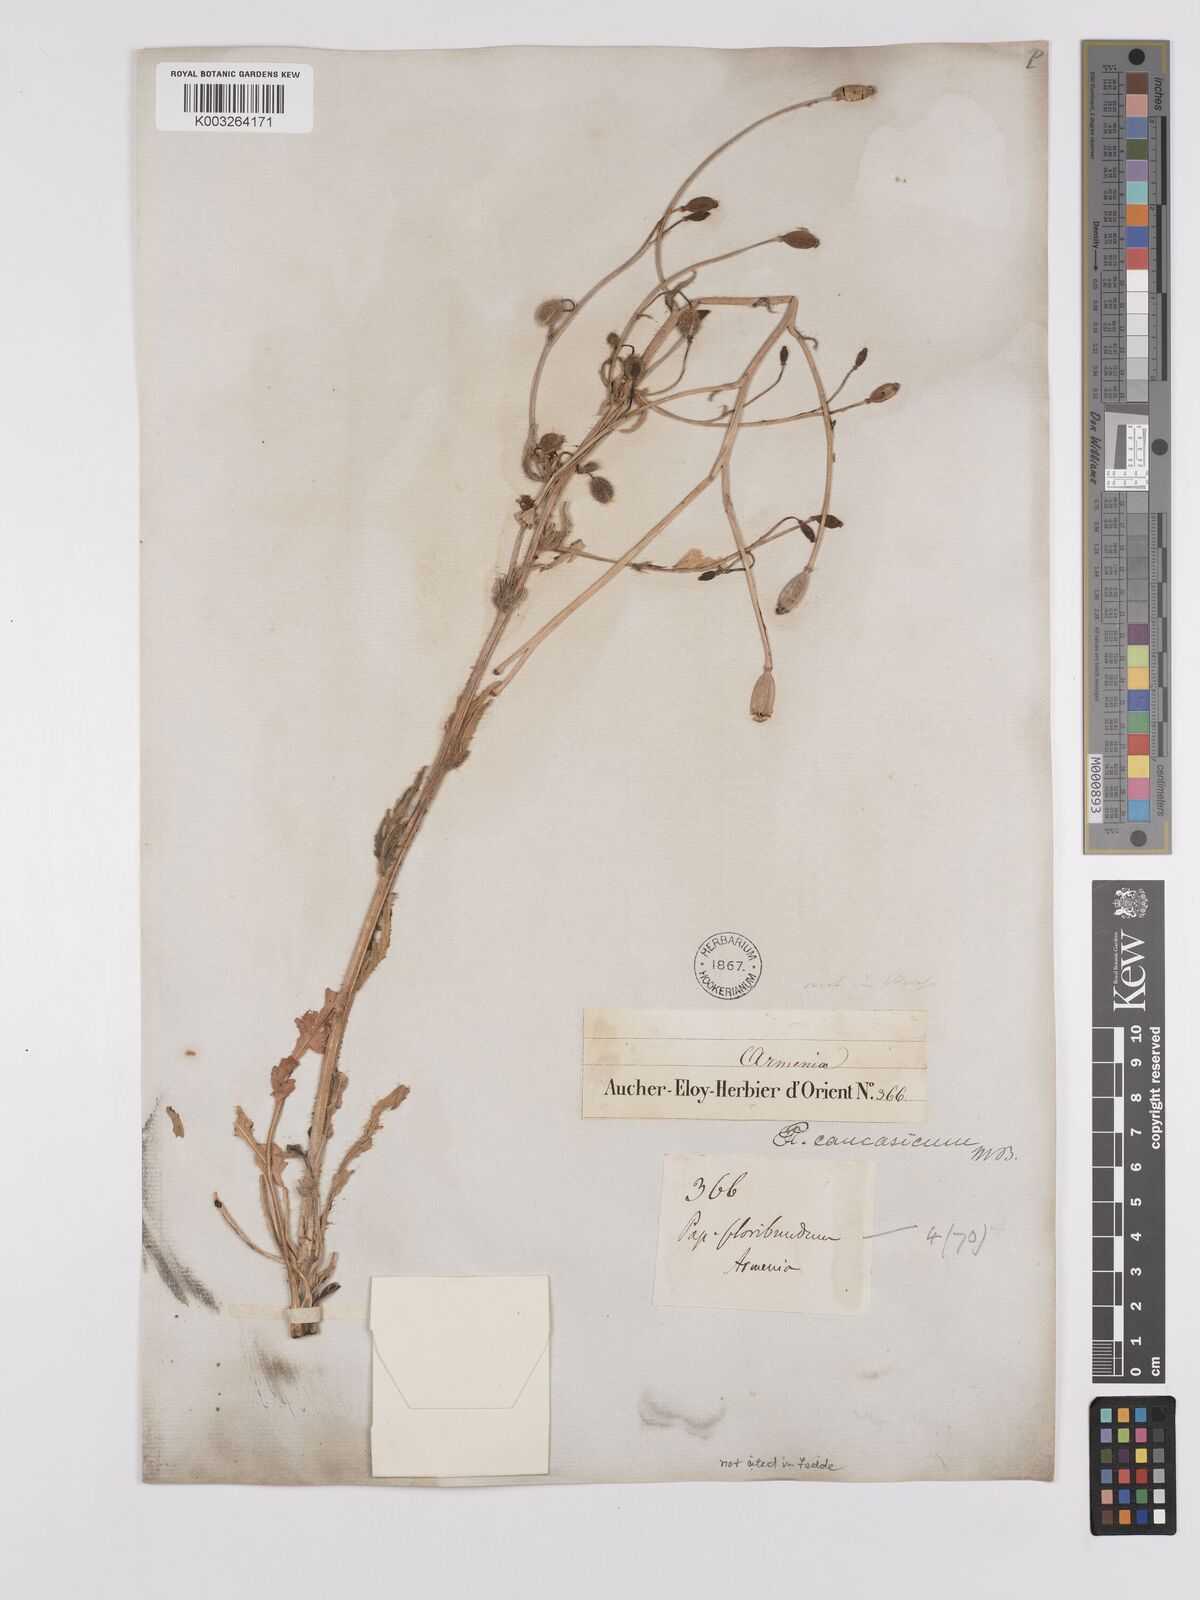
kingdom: Plantae
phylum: Tracheophyta
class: Magnoliopsida
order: Ranunculales
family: Papaveraceae
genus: Papaver
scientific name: Papaver armeniacum
